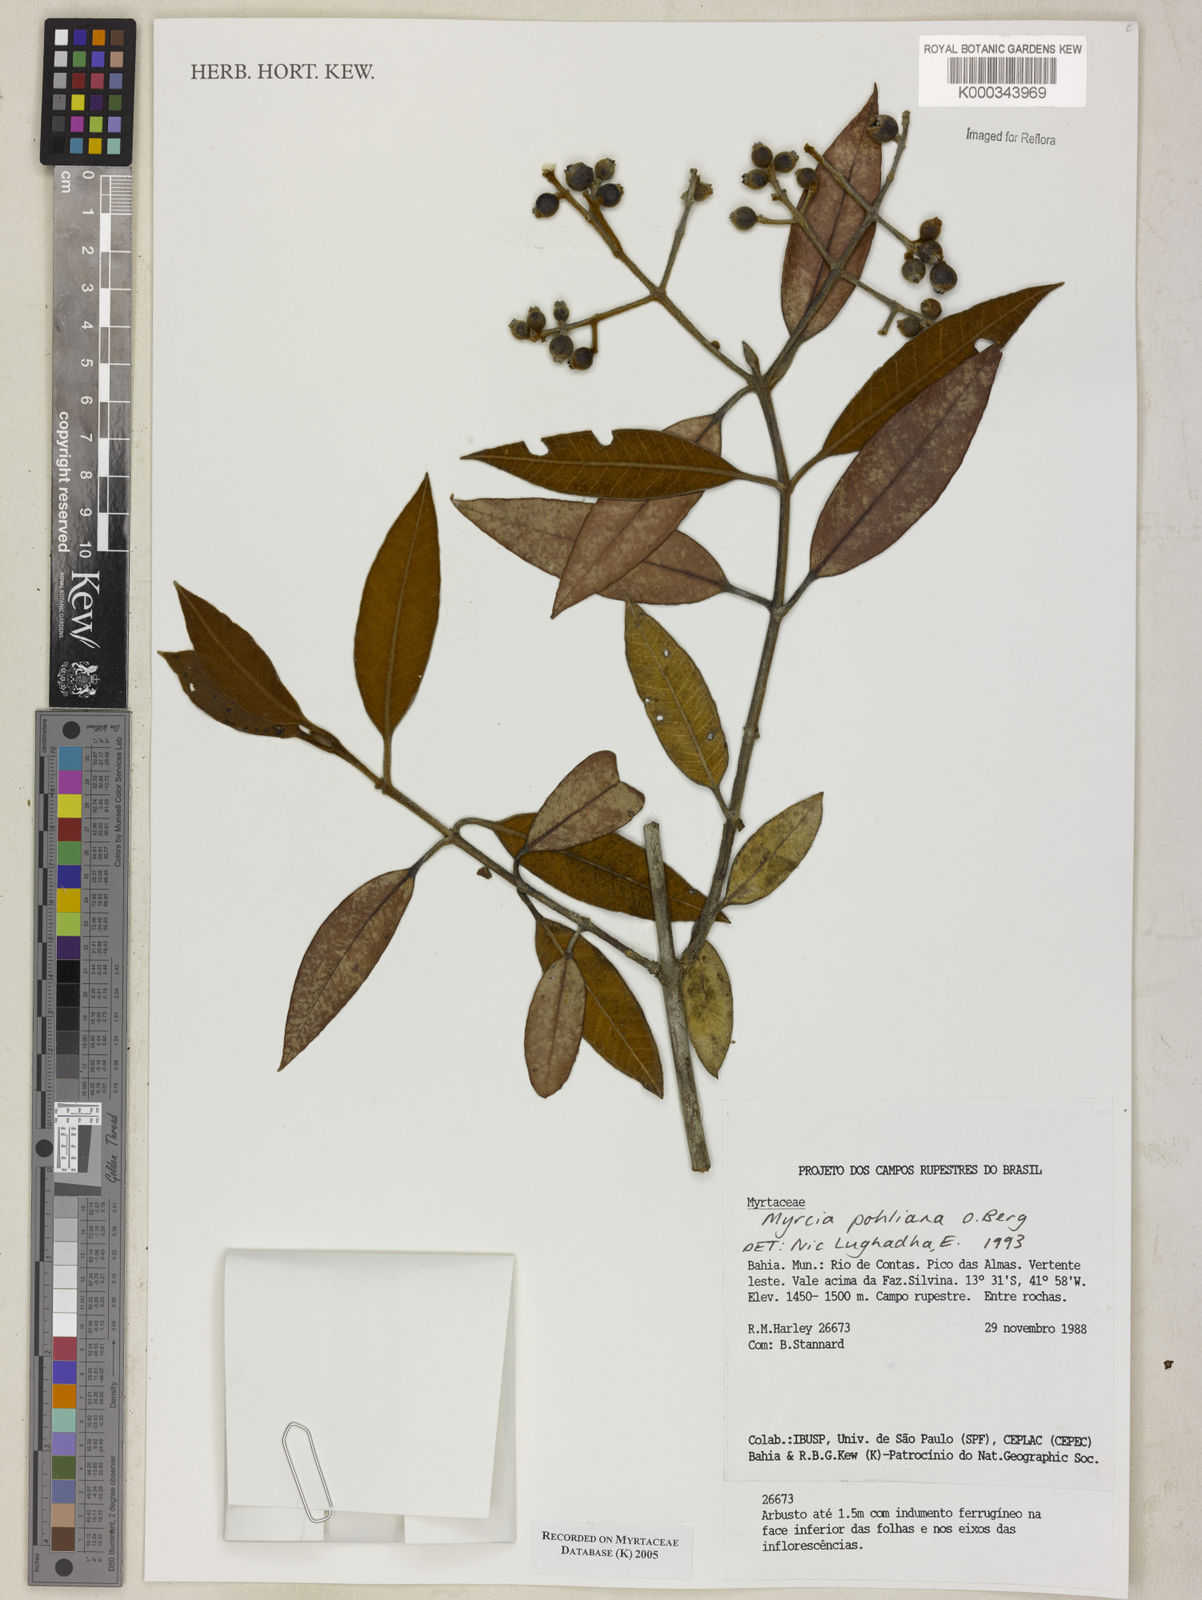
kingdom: Plantae
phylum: Tracheophyta
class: Magnoliopsida
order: Myrtales
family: Myrtaceae
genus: Myrcia
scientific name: Myrcia splendens
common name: Surinam cherry
